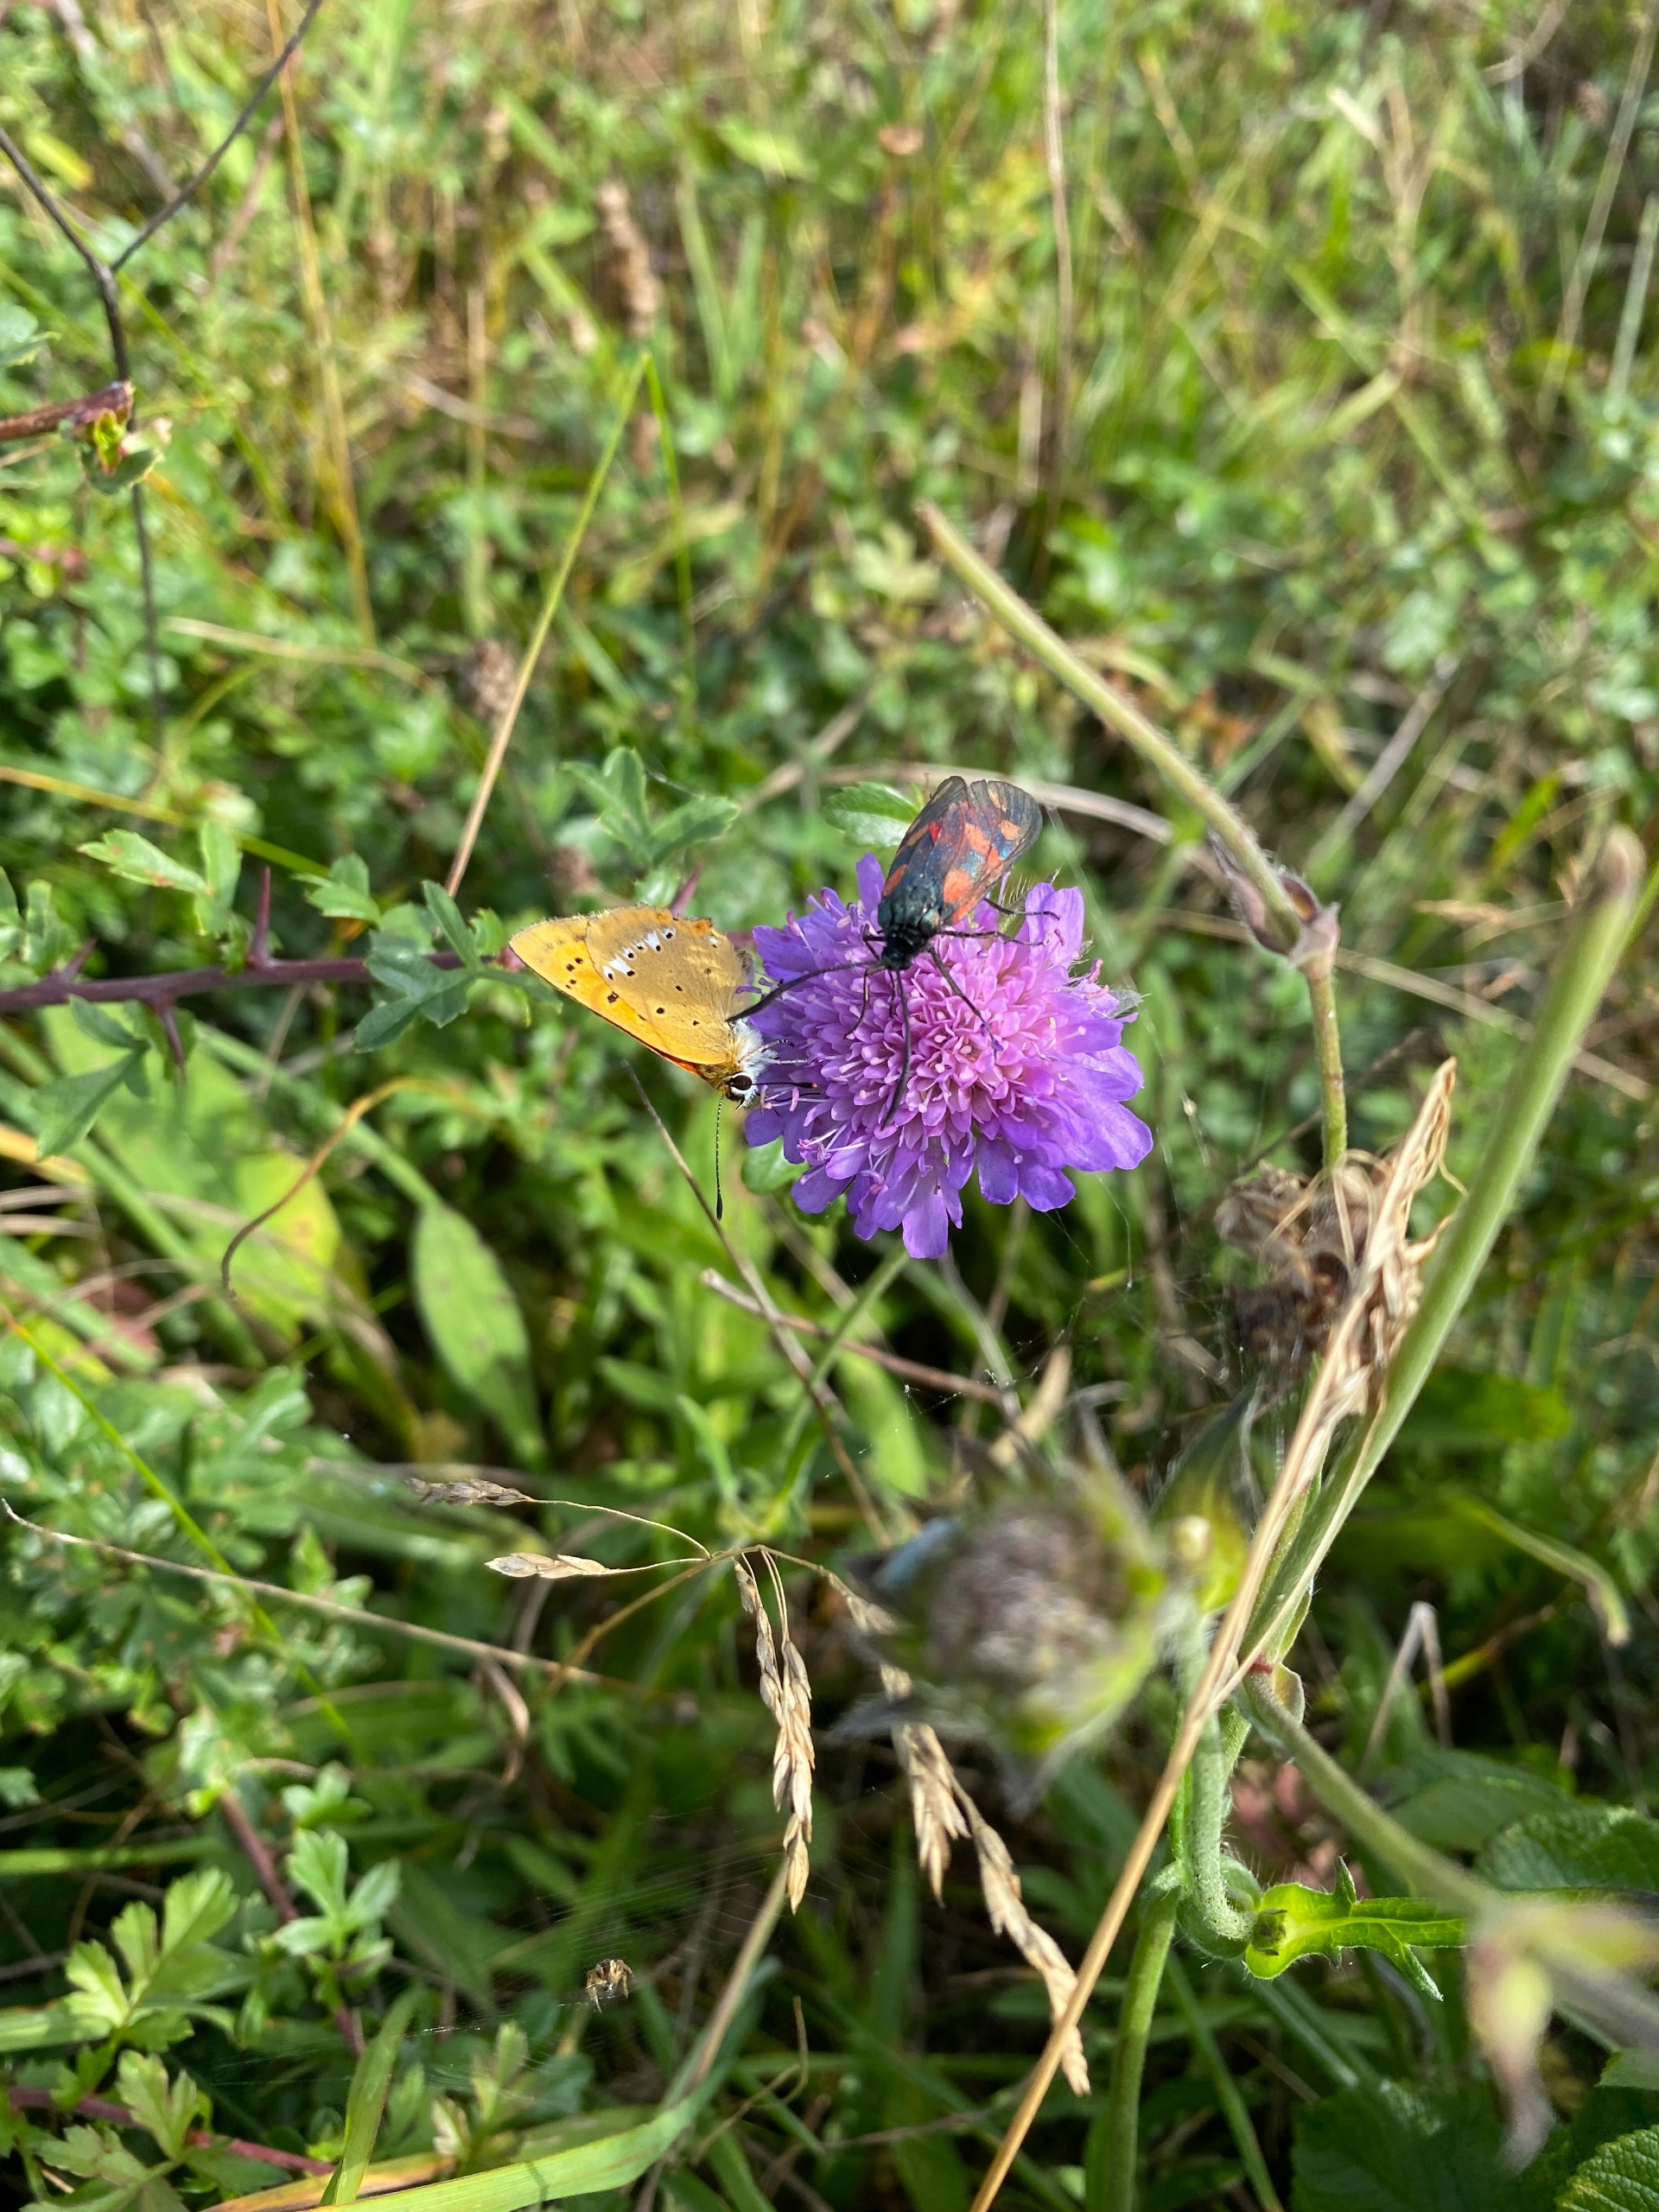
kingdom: Animalia
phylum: Arthropoda
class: Insecta
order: Lepidoptera
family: Lycaenidae
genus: Lycaena
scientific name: Lycaena virgaureae
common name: Dukatsommerfugl
